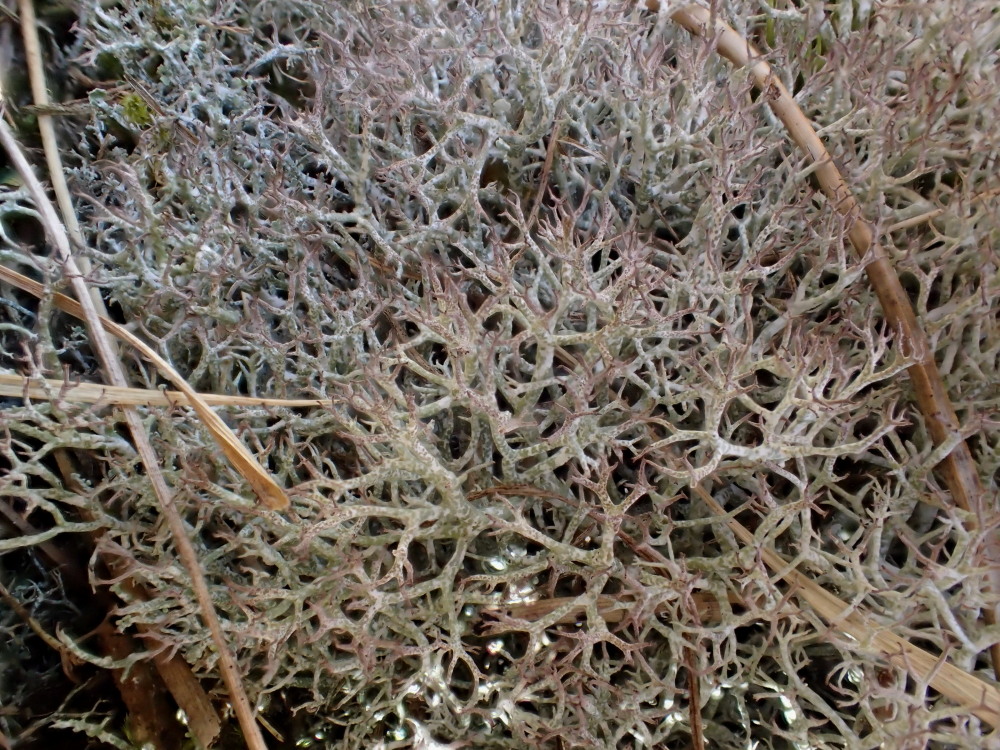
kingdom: Fungi
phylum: Ascomycota
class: Lecanoromycetes
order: Lecanorales
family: Cladoniaceae
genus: Cladonia
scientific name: Cladonia rangiformis
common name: spættet bægerlav
